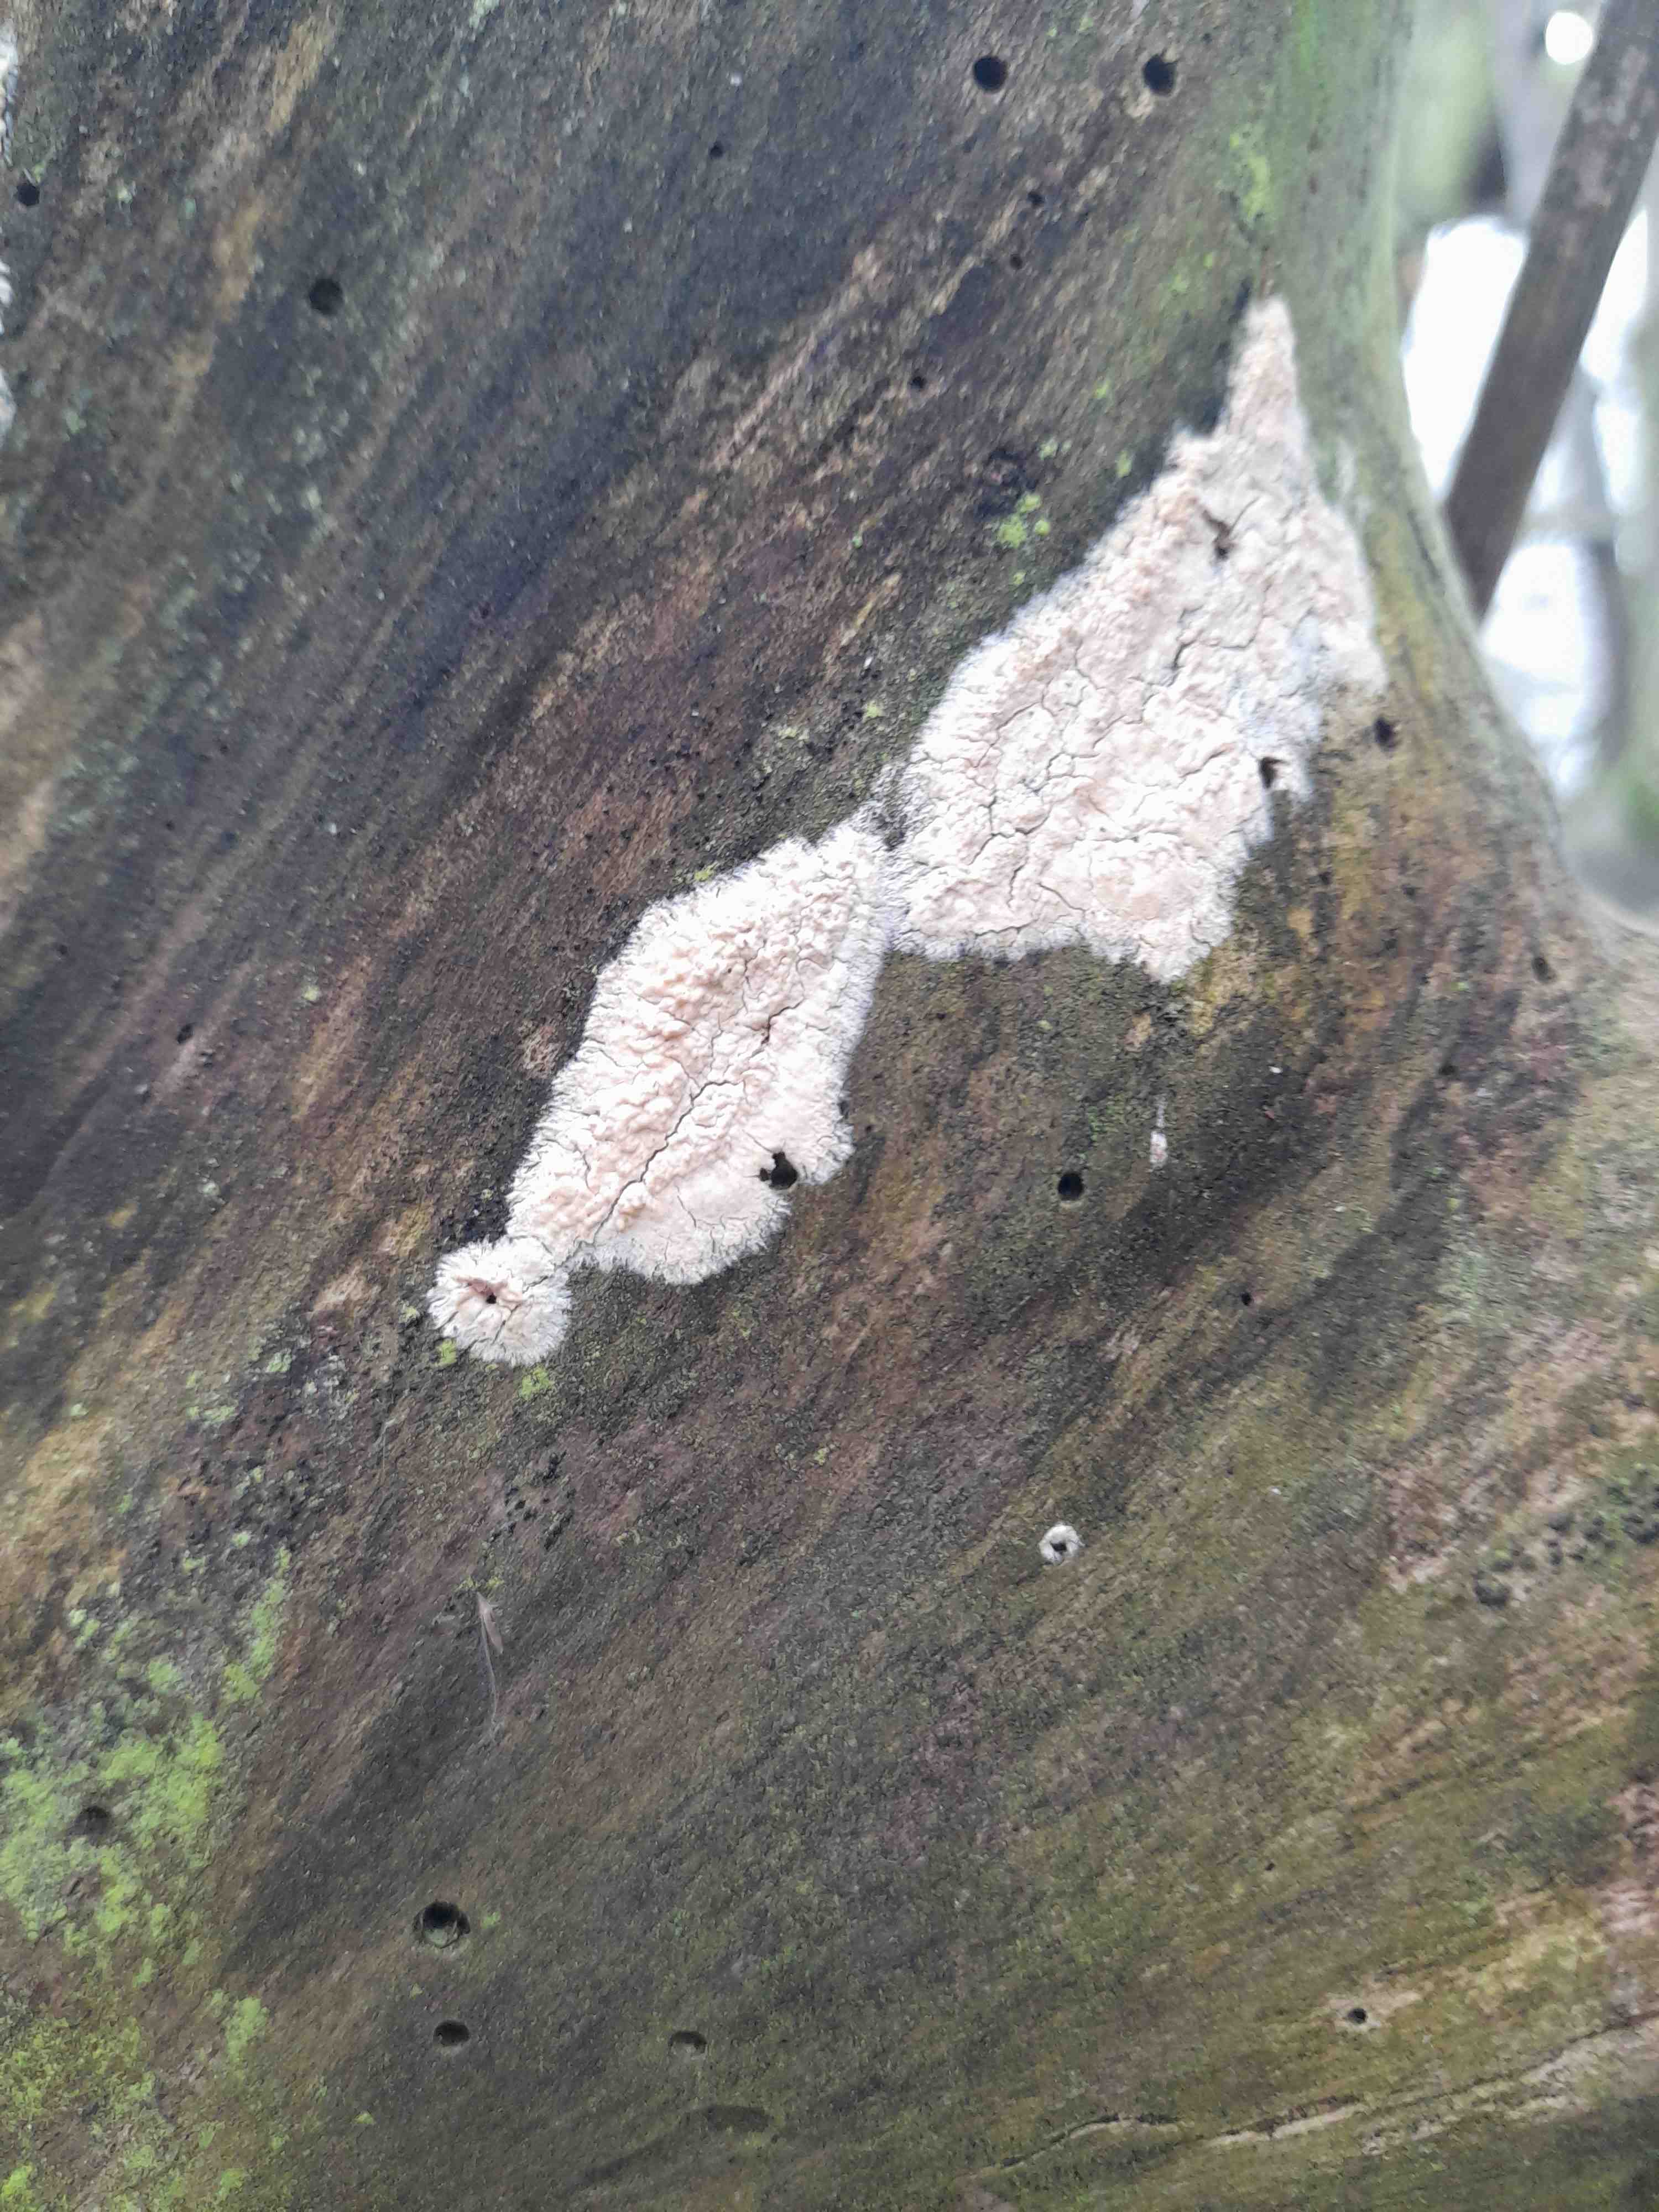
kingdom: Fungi
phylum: Basidiomycota
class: Agaricomycetes
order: Corticiales
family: Corticiaceae
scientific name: Corticiaceae
